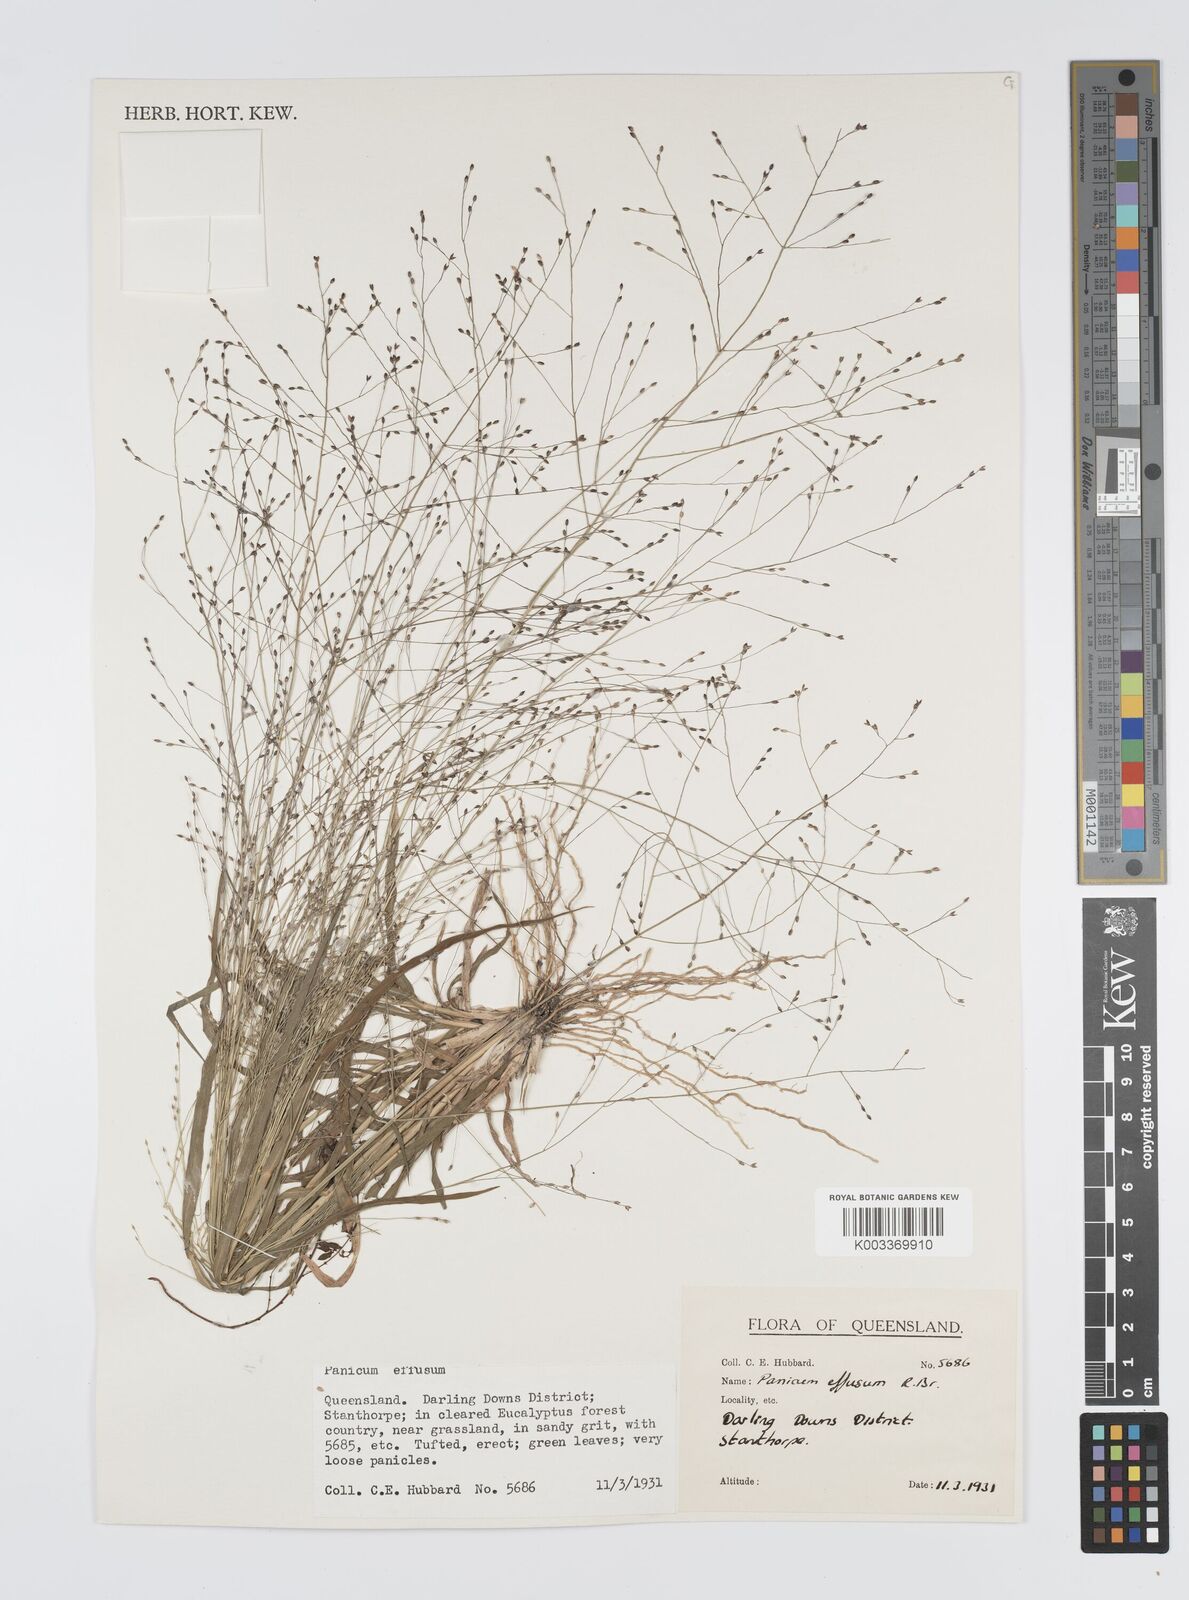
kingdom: Plantae
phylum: Tracheophyta
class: Liliopsida
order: Poales
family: Poaceae
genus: Panicum
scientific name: Panicum effusum
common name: Hairy panic grass
